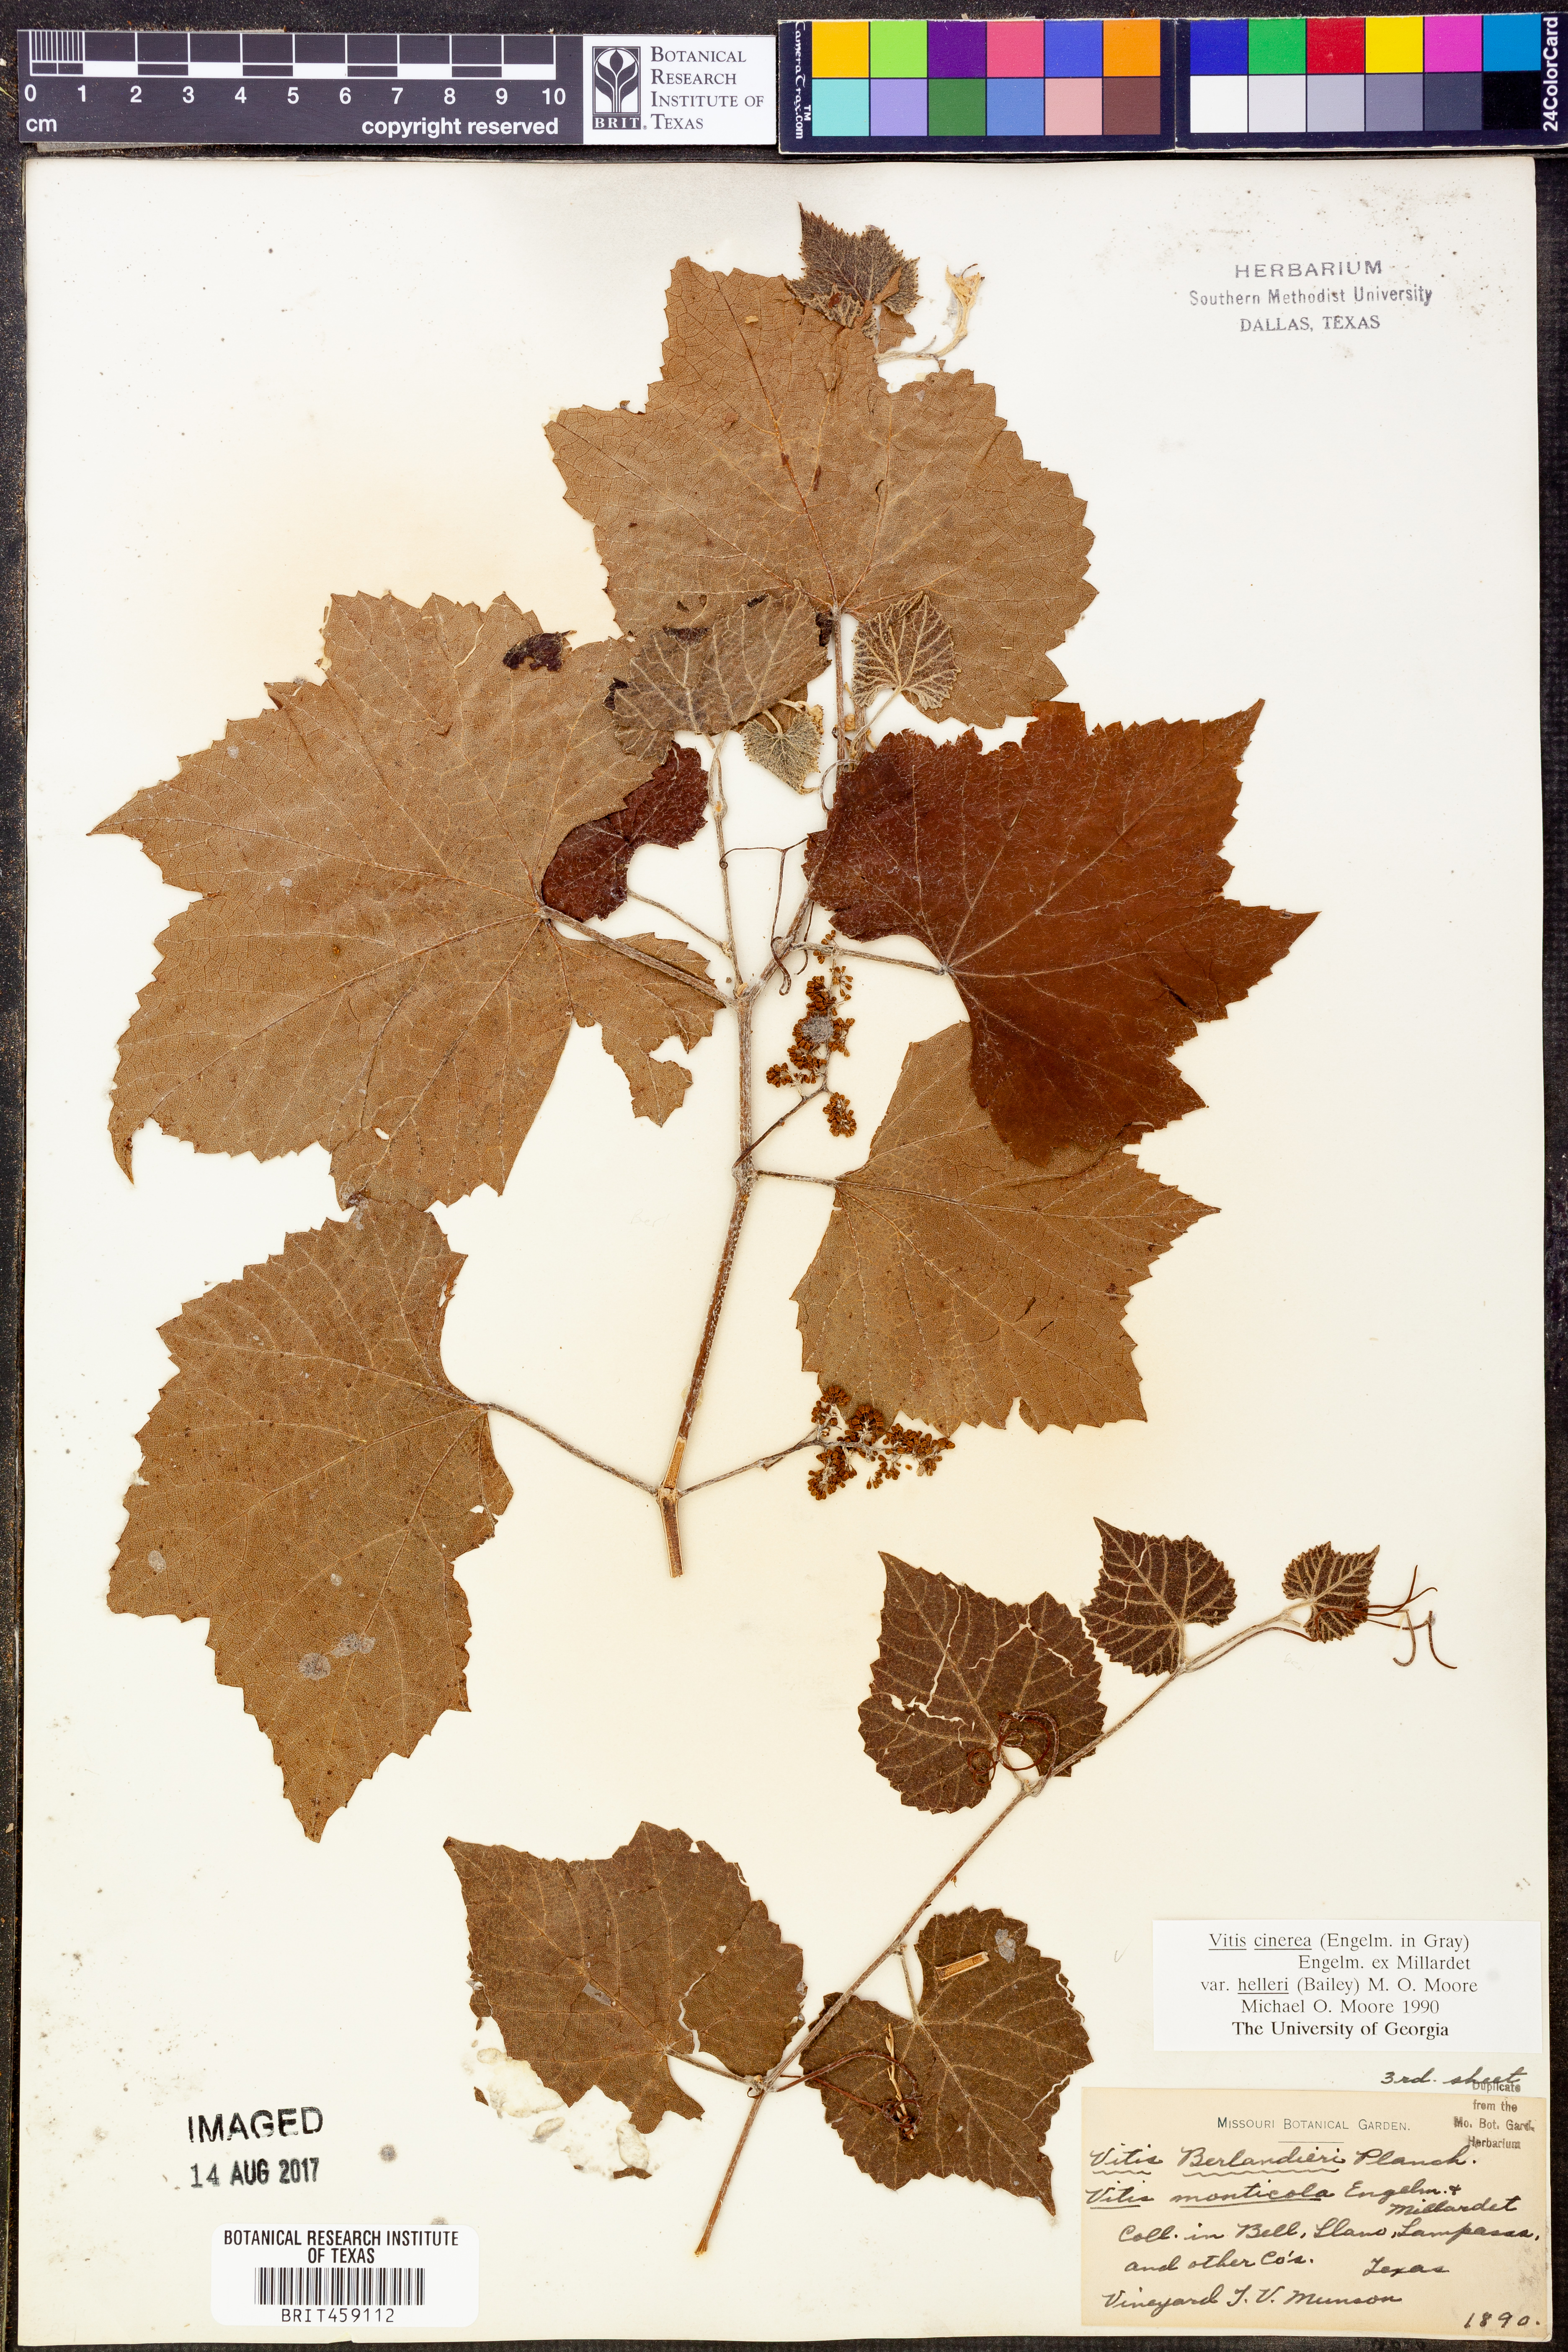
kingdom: Plantae
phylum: Tracheophyta
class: Magnoliopsida
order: Vitales
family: Vitaceae
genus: Vitis
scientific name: Vitis cinerea
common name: Ashy grape
